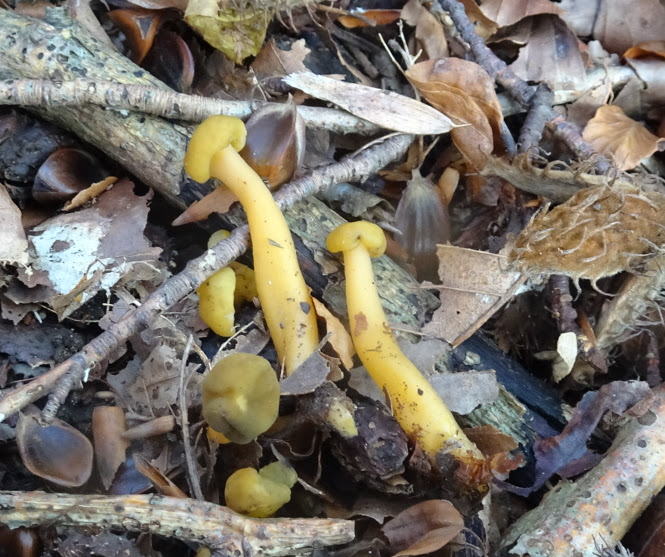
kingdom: Fungi
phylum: Ascomycota
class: Leotiomycetes
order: Leotiales
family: Leotiaceae
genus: Leotia
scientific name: Leotia lubrica
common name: ravsvamp
